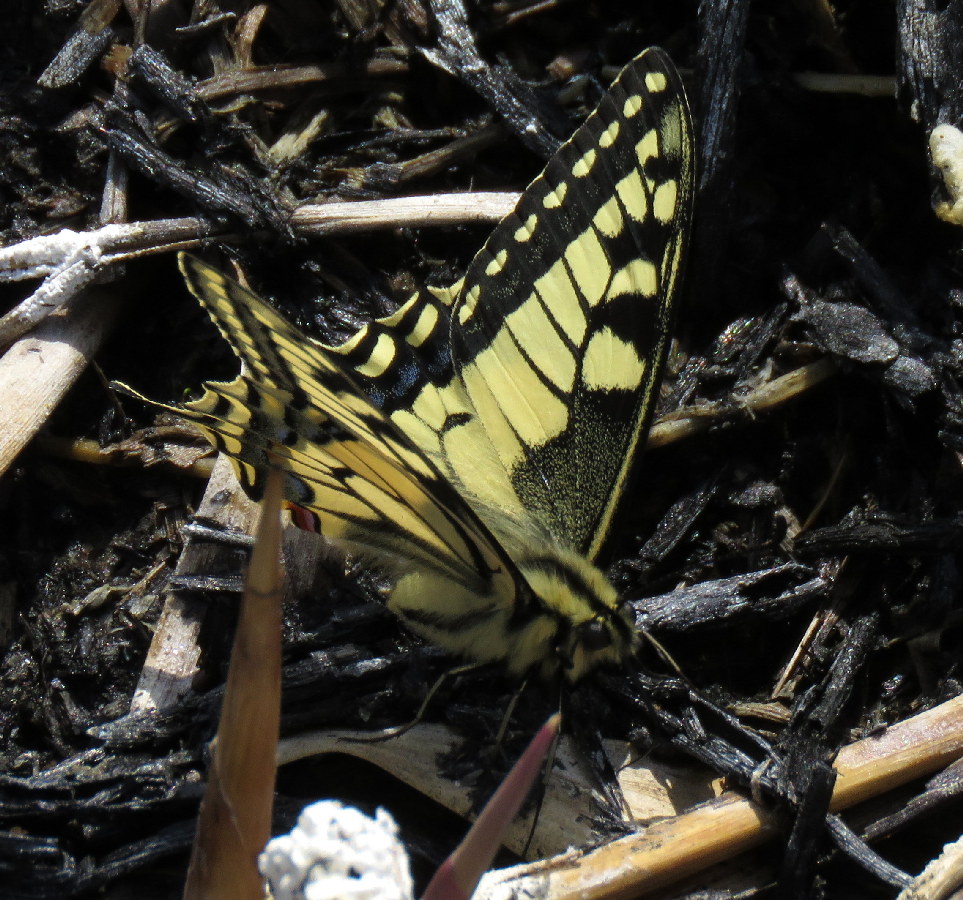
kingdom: Animalia
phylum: Arthropoda
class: Insecta
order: Lepidoptera
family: Papilionidae
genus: Papilio
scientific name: Papilio machaon
